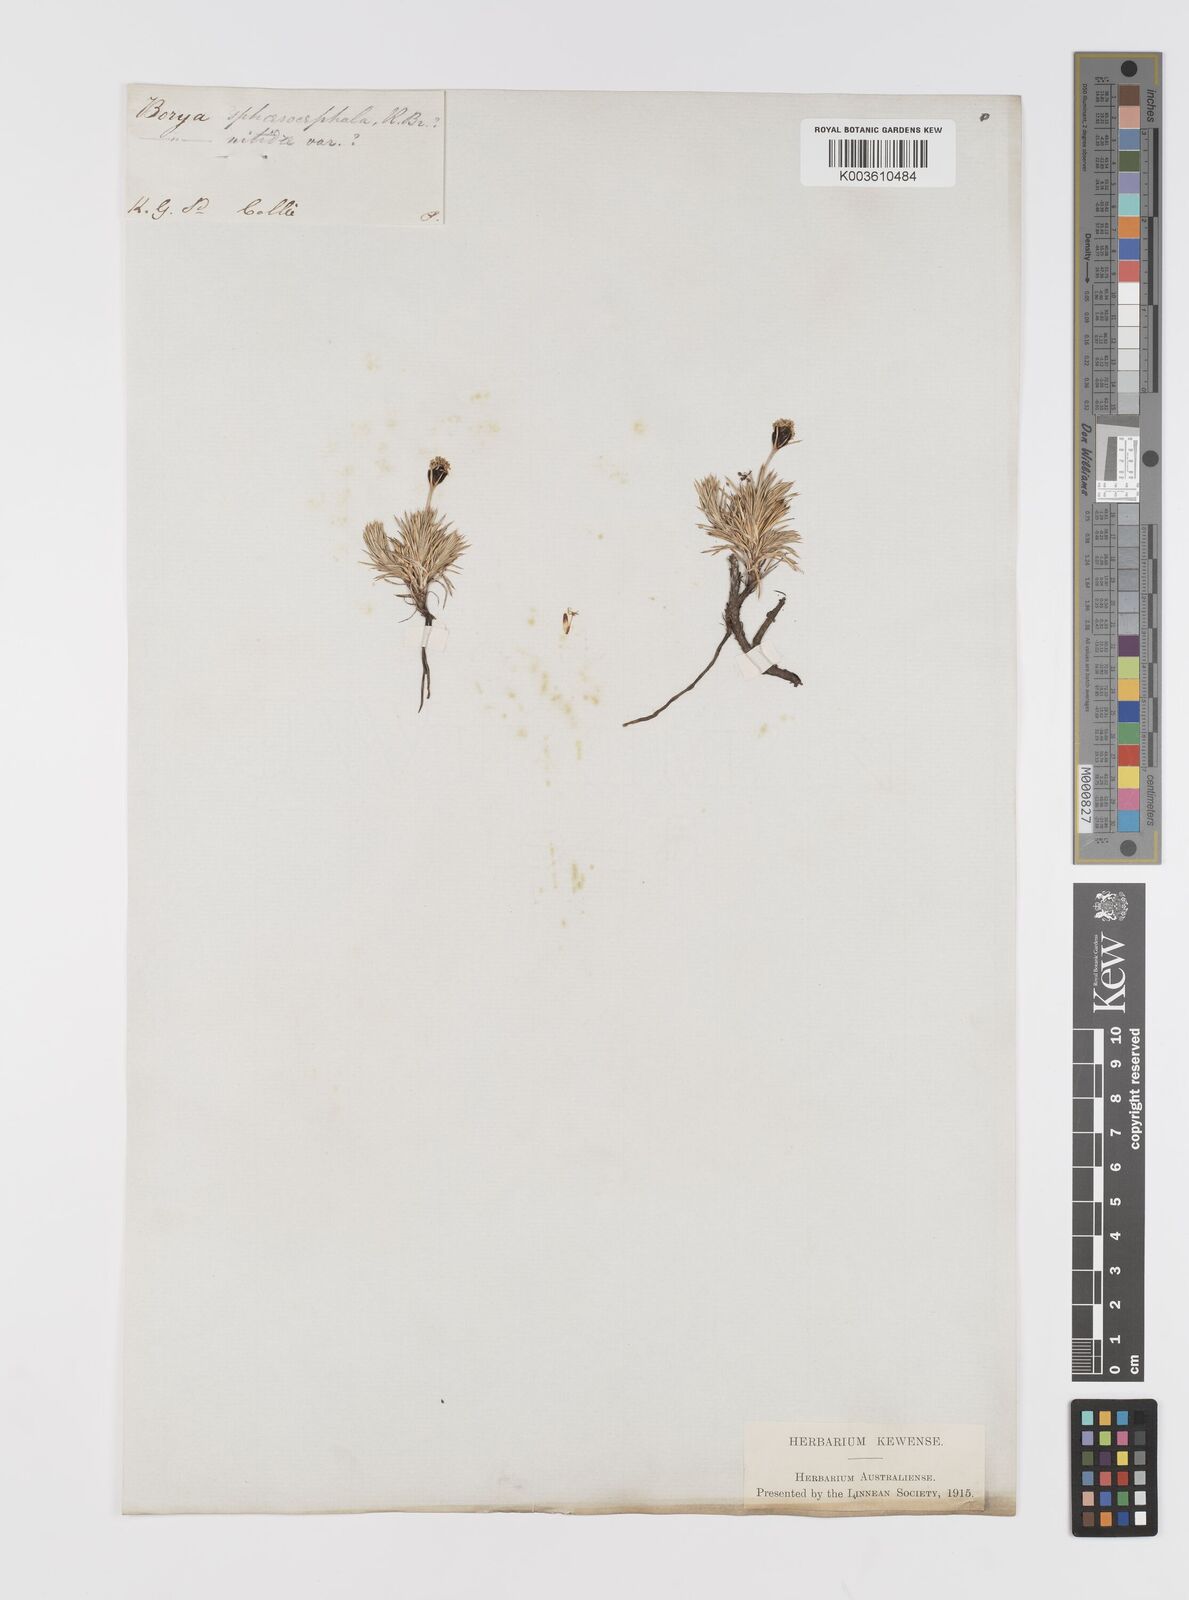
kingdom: Plantae
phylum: Tracheophyta
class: Liliopsida
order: Asparagales
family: Boryaceae
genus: Borya
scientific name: Borya nitida
